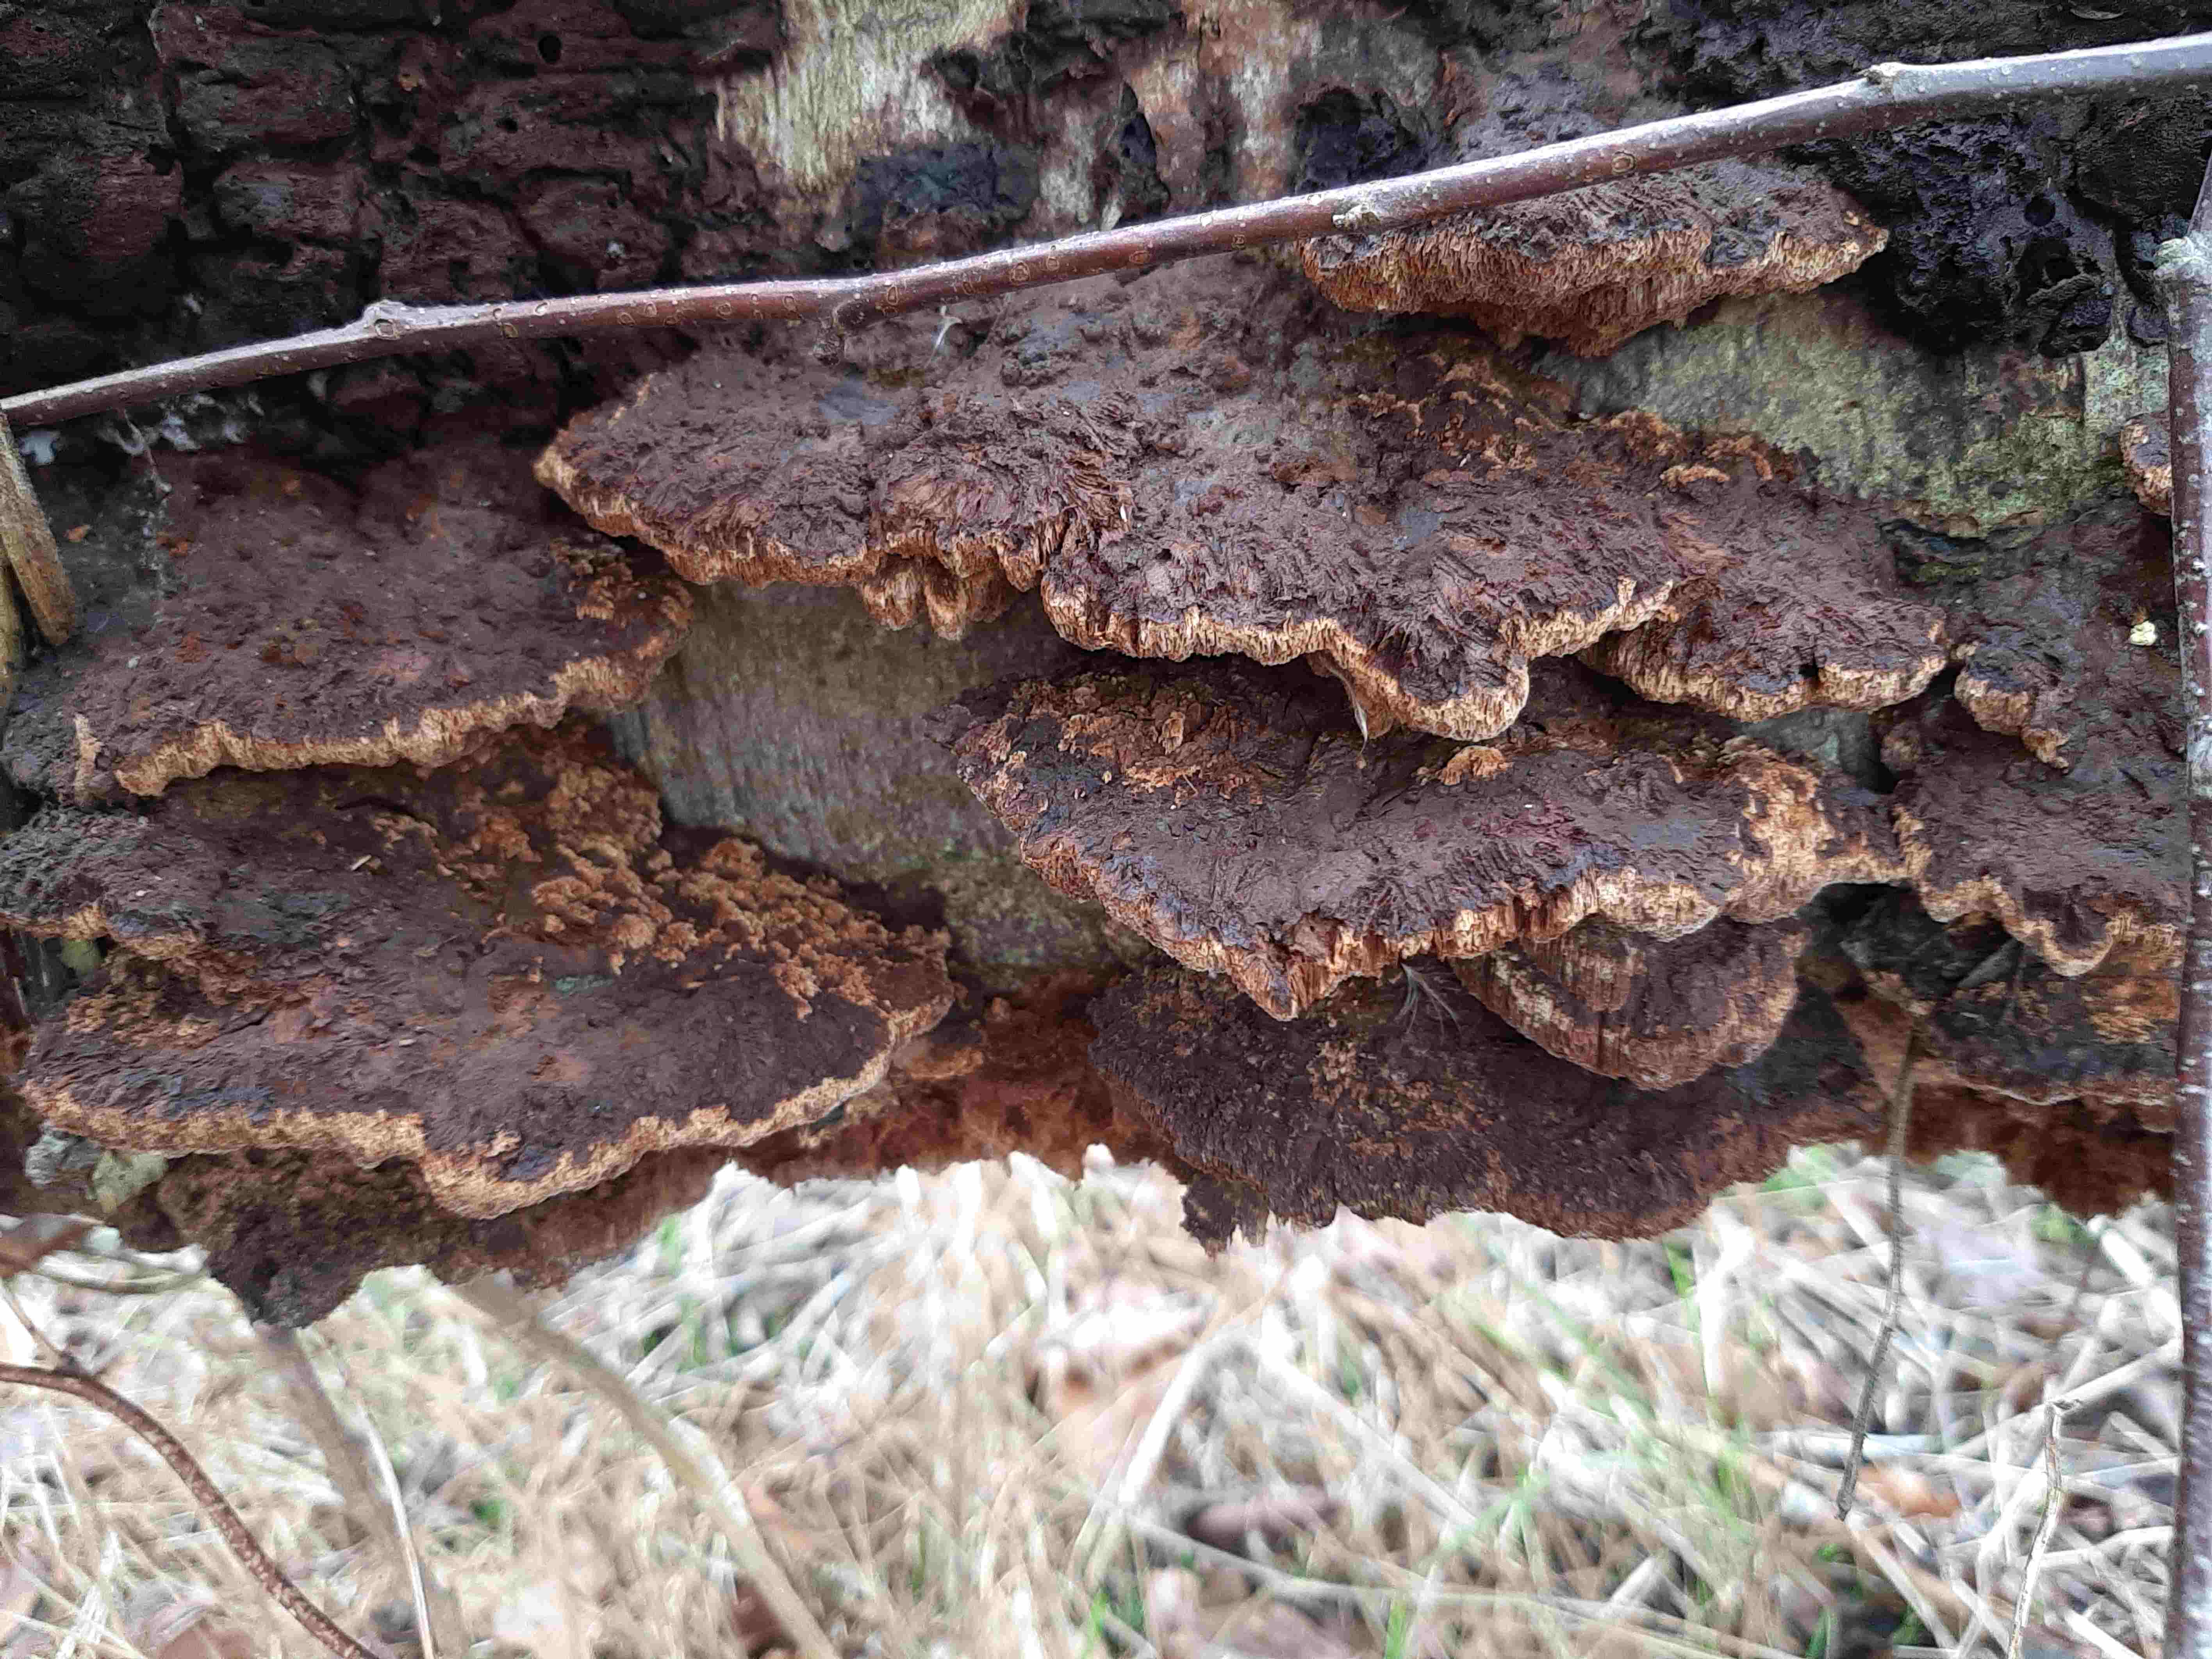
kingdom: Fungi
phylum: Basidiomycota
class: Agaricomycetes
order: Hymenochaetales
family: Hymenochaetaceae
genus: Xanthoporia
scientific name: Xanthoporia radiata
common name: elle-spejlporesvamp
